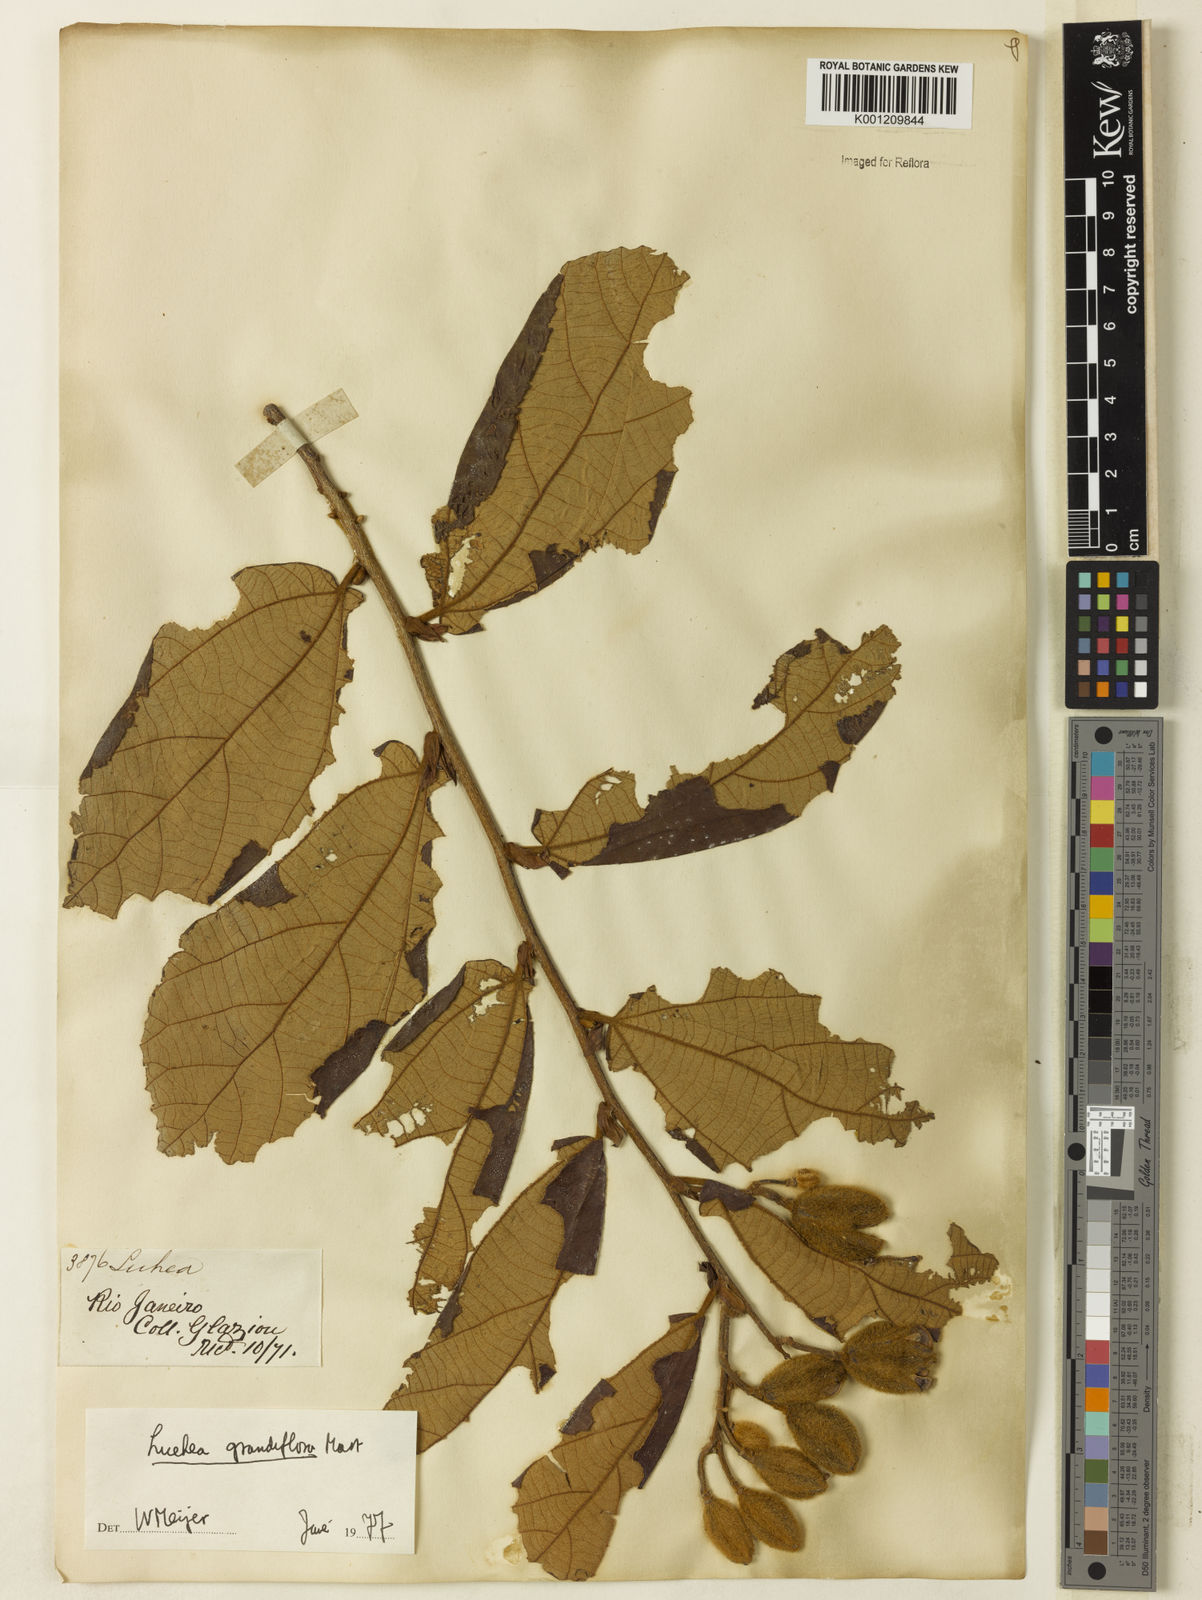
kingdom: Plantae
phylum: Tracheophyta
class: Magnoliopsida
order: Malvales
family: Malvaceae
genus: Luehea
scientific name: Luehea grandiflora
